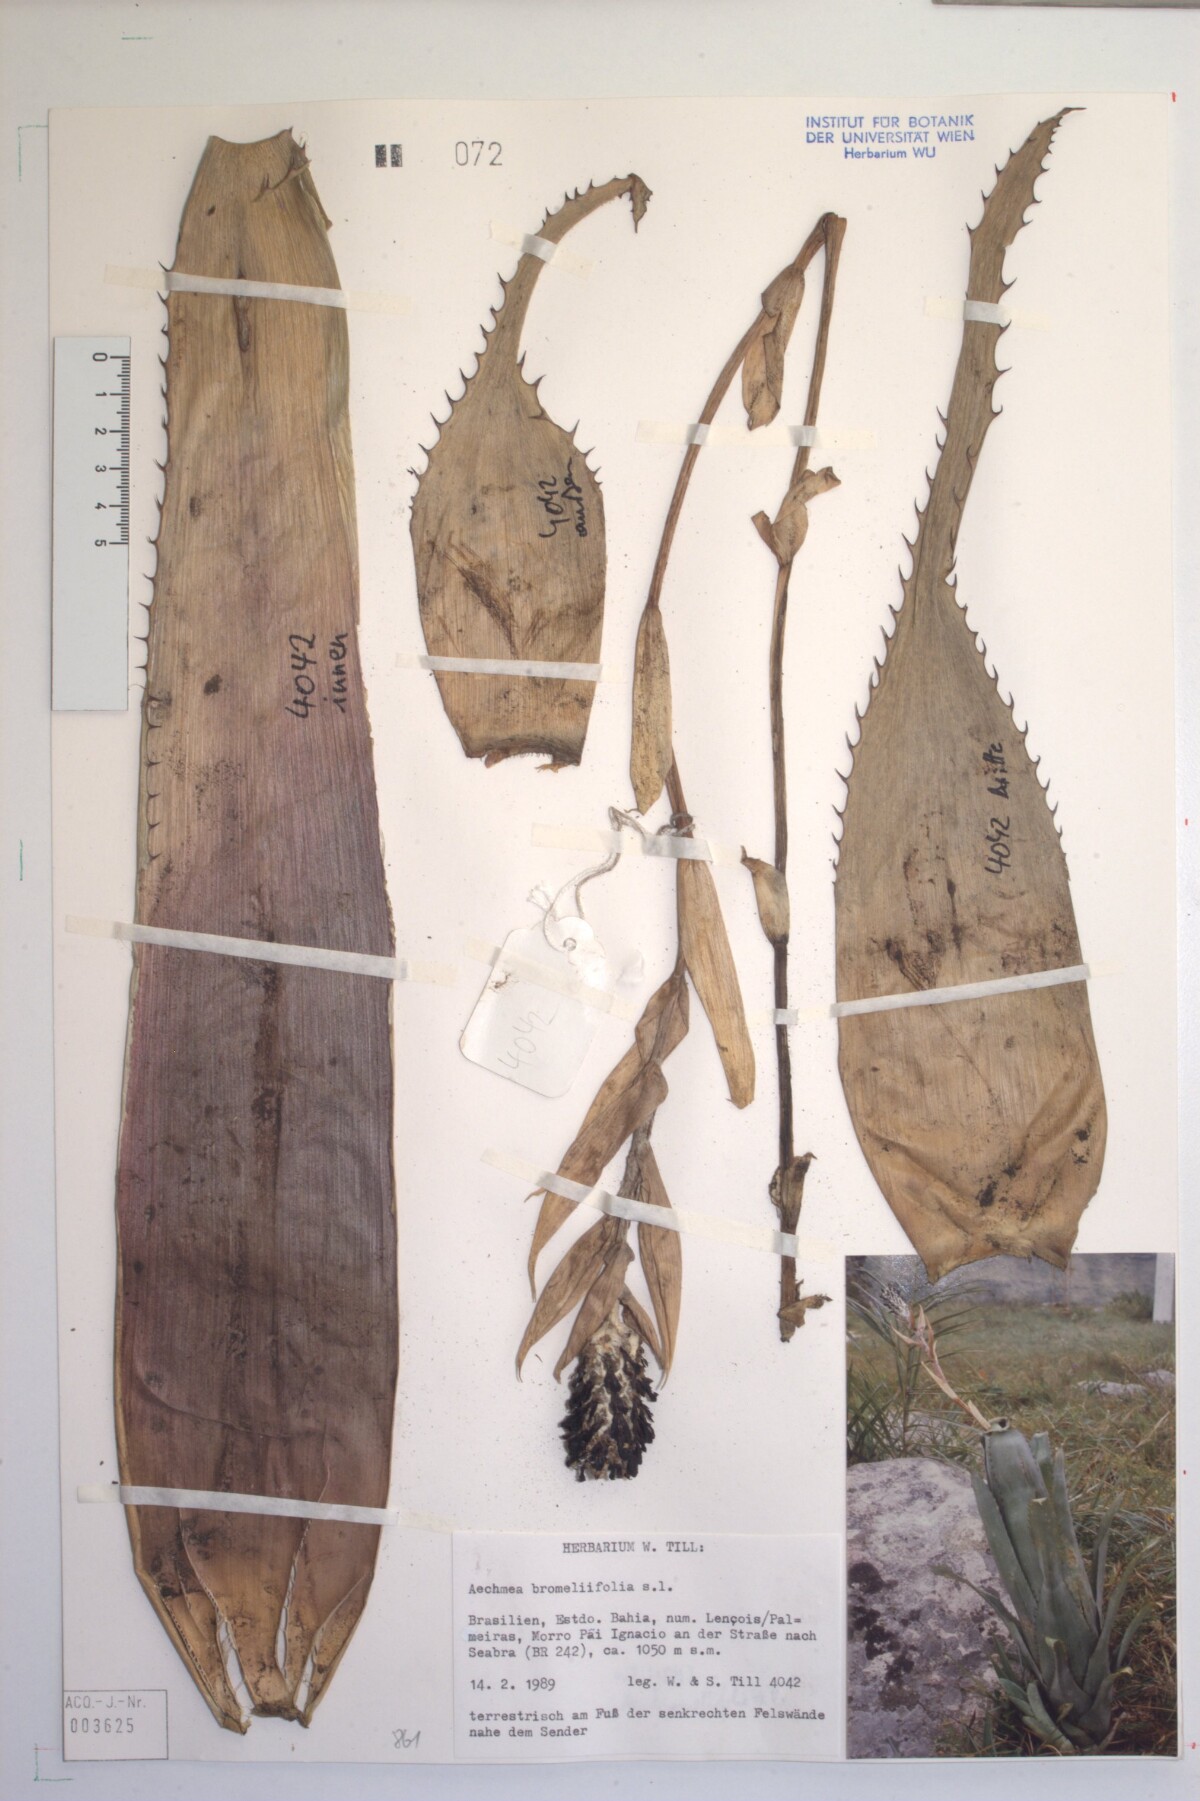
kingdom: Plantae
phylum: Tracheophyta
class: Liliopsida
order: Poales
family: Bromeliaceae
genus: Aechmea
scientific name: Aechmea bromeliifolia
